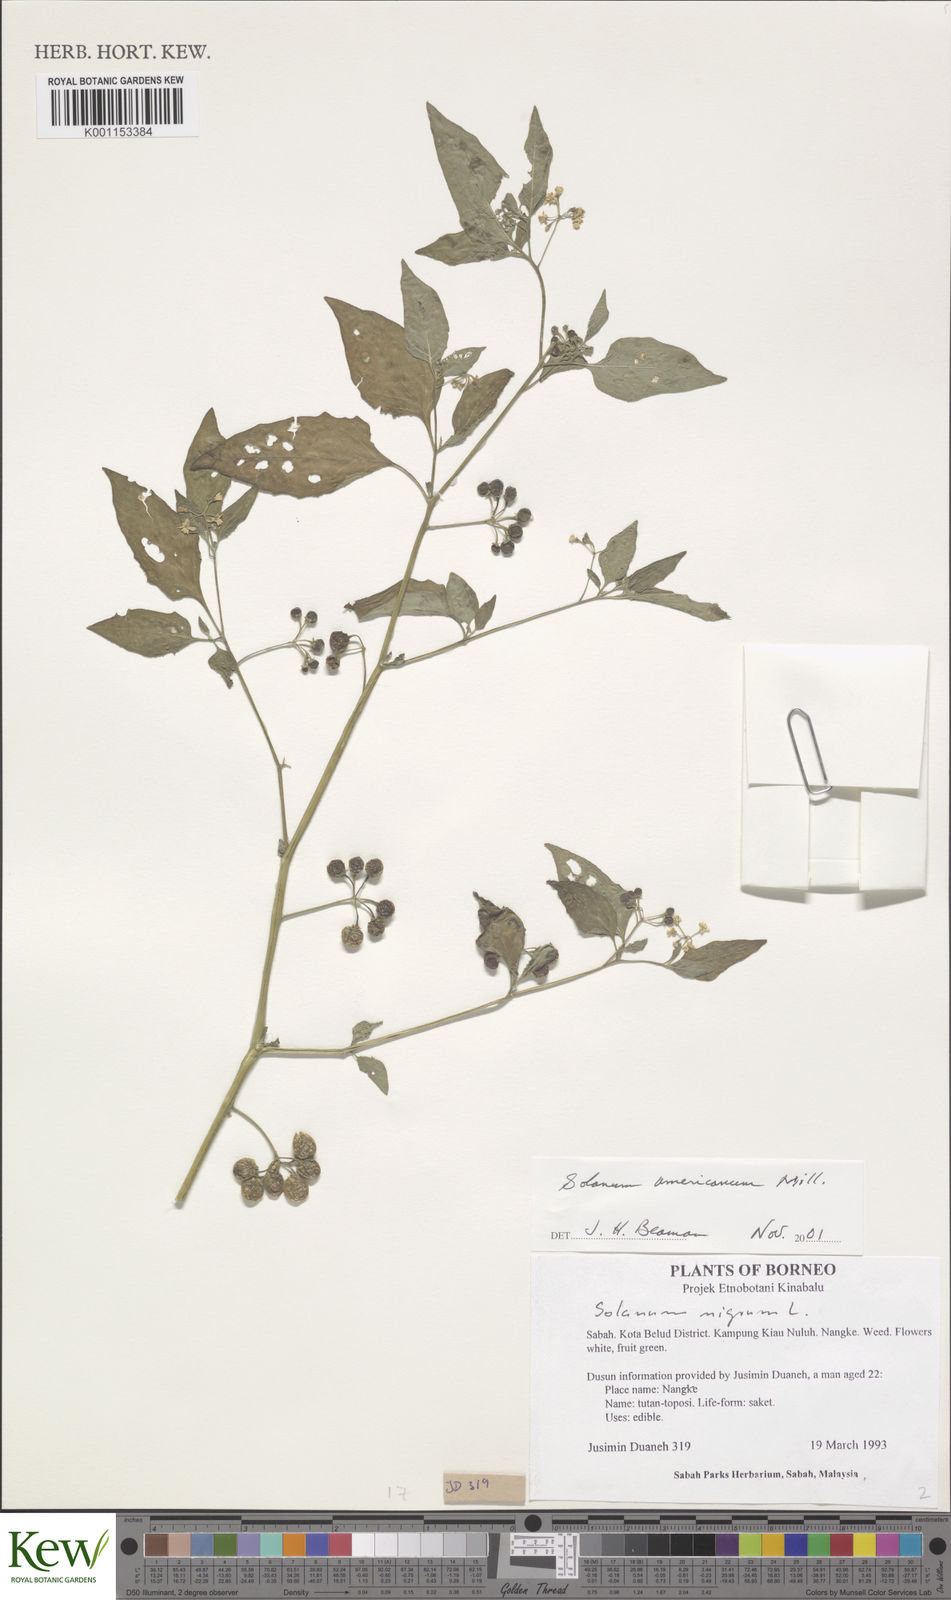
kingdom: Plantae
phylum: Tracheophyta
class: Magnoliopsida
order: Solanales
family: Solanaceae
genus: Solanum
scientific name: Solanum americanum
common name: American black nightshade
